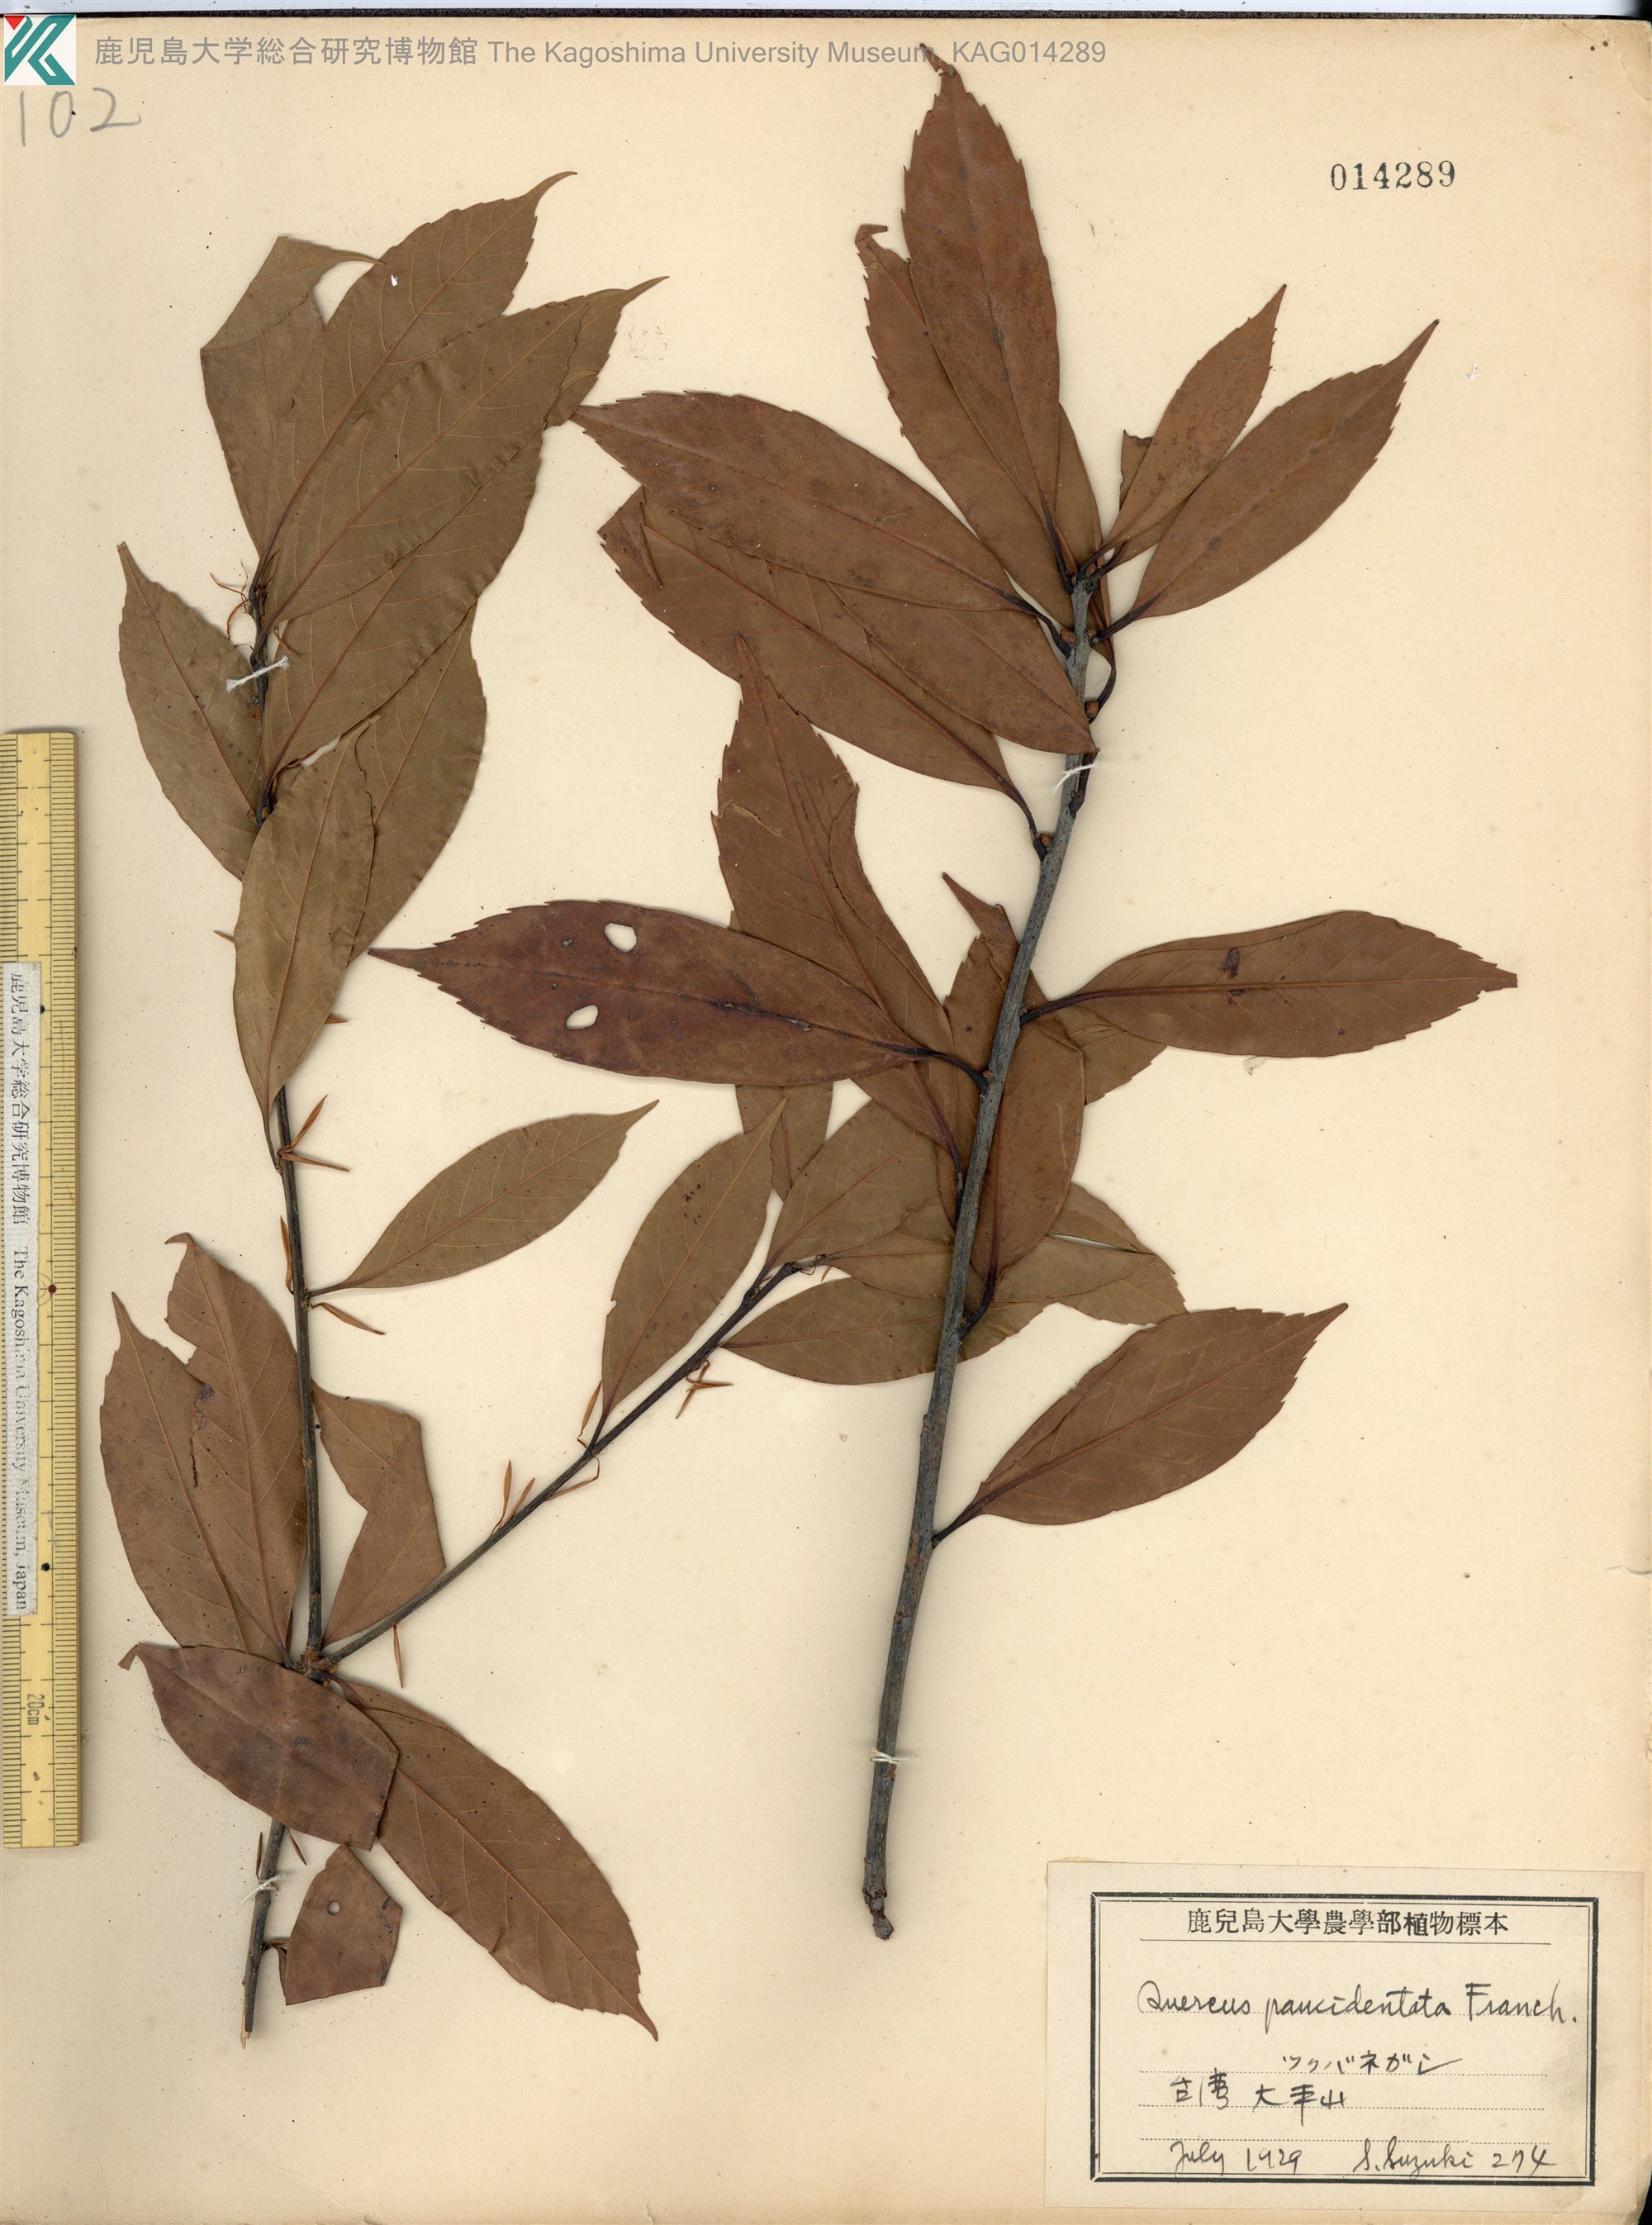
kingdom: Plantae
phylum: Tracheophyta
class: Magnoliopsida
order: Fagales
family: Fagaceae
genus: Quercus
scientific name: Quercus sessilifolia
